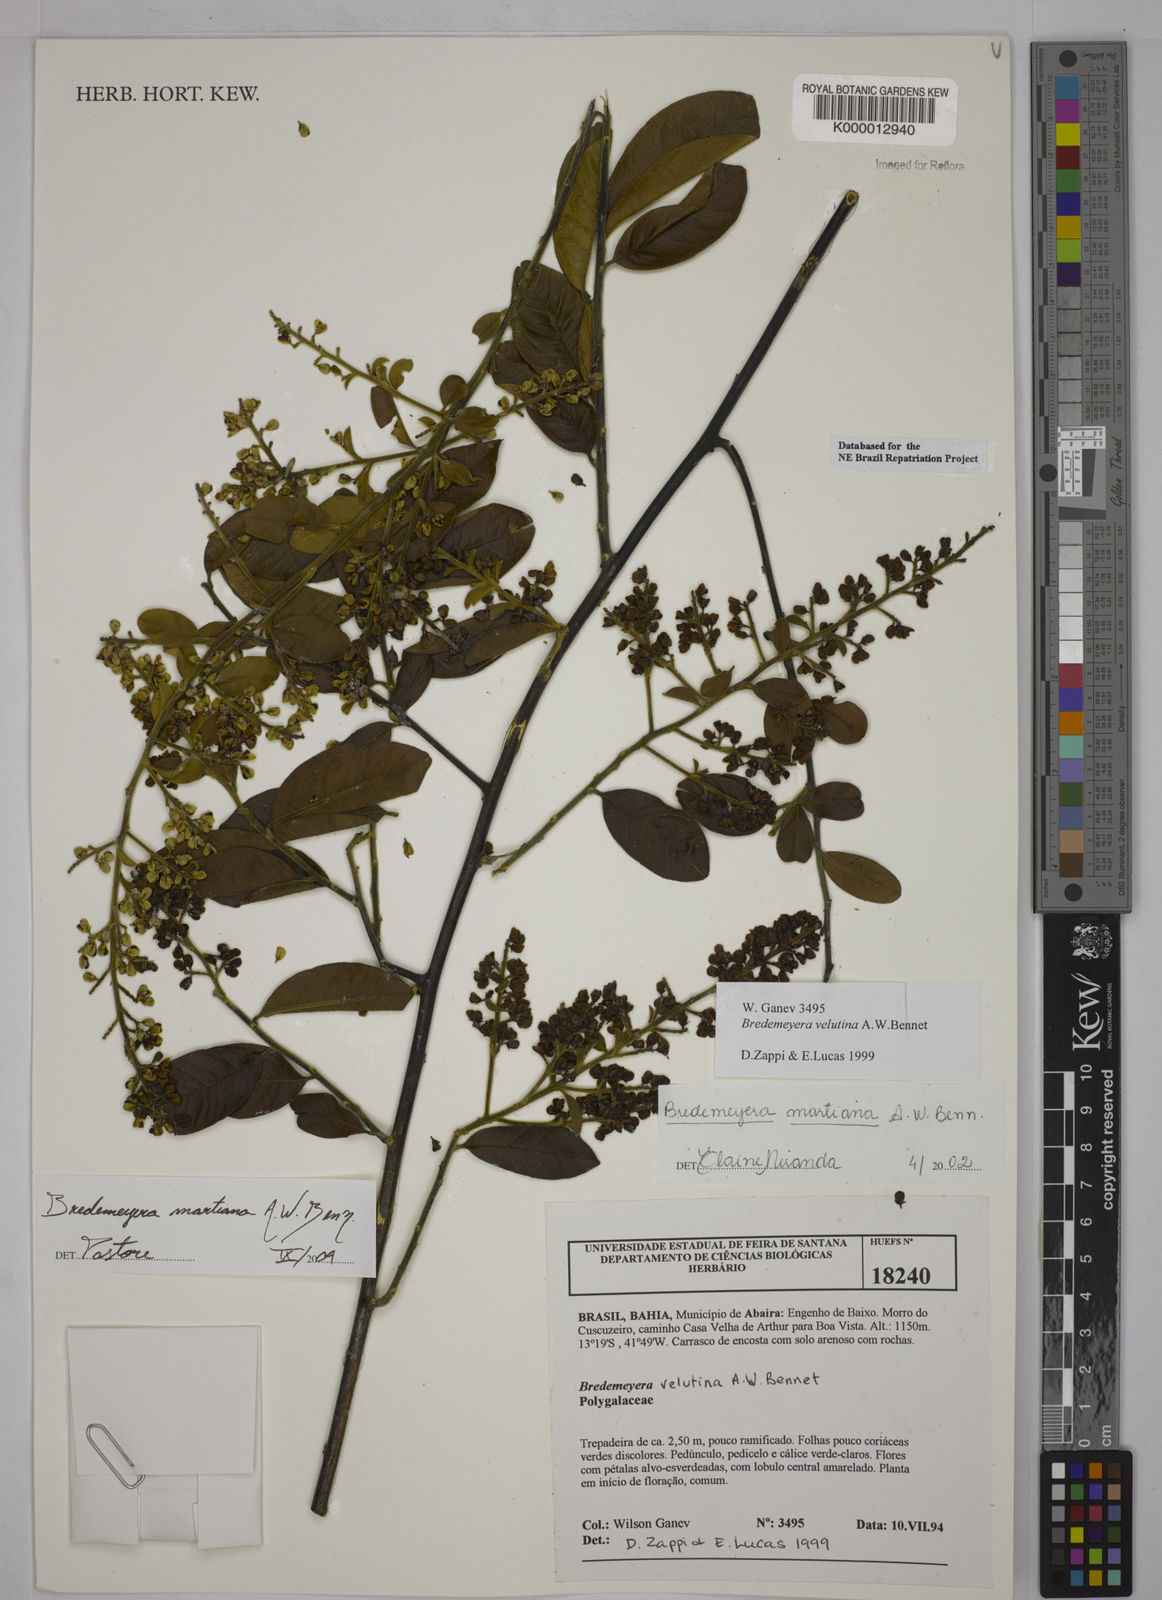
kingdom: Plantae
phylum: Tracheophyta
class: Magnoliopsida
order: Fabales
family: Polygalaceae
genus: Bredemeyera
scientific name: Bredemeyera martiana
